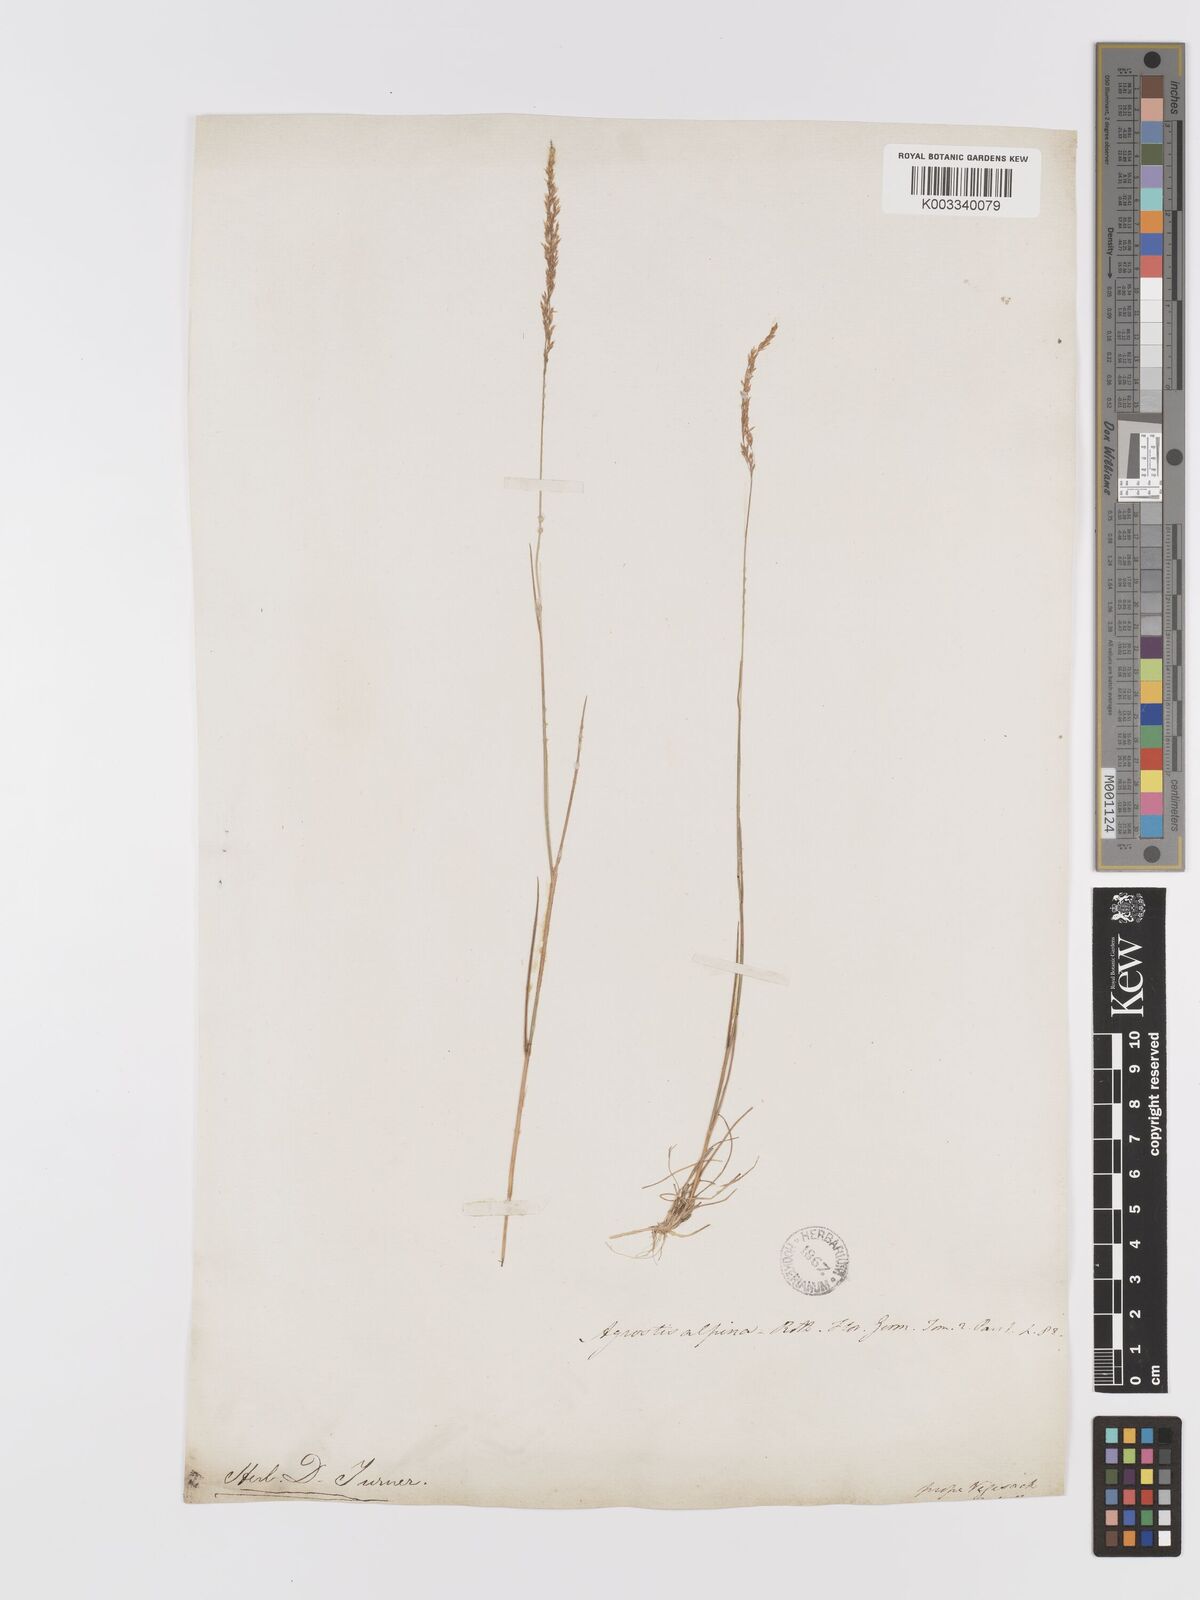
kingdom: Plantae
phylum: Tracheophyta
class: Liliopsida
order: Poales
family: Poaceae
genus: Agrostis
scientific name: Agrostis rupestris
